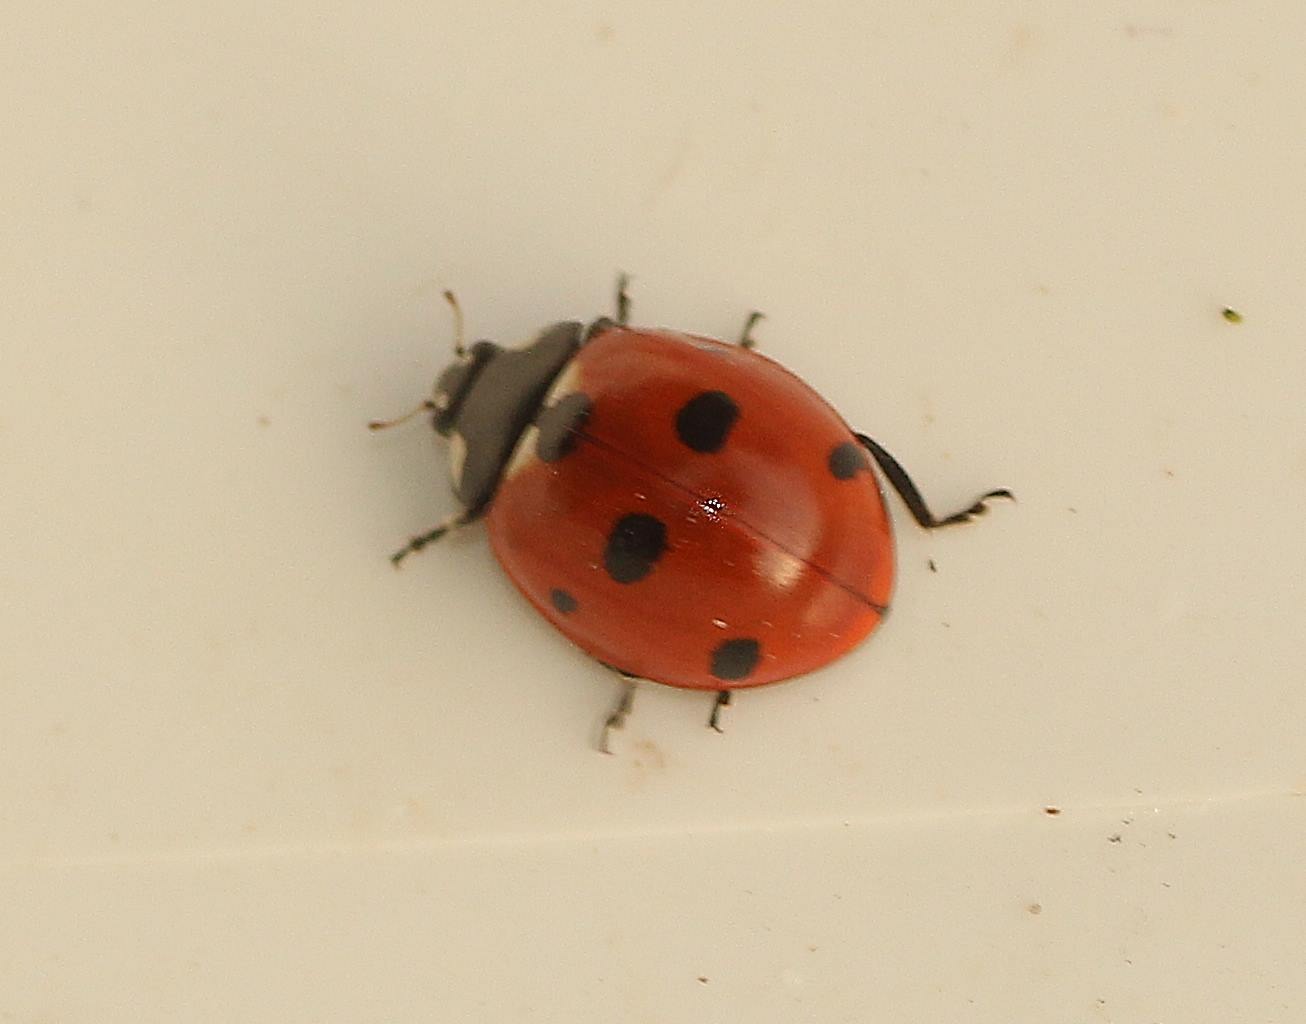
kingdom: Animalia
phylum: Arthropoda
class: Insecta
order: Coleoptera
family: Coccinellidae
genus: Coccinella
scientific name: Coccinella septempunctata
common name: Syvplettet mariehøne
